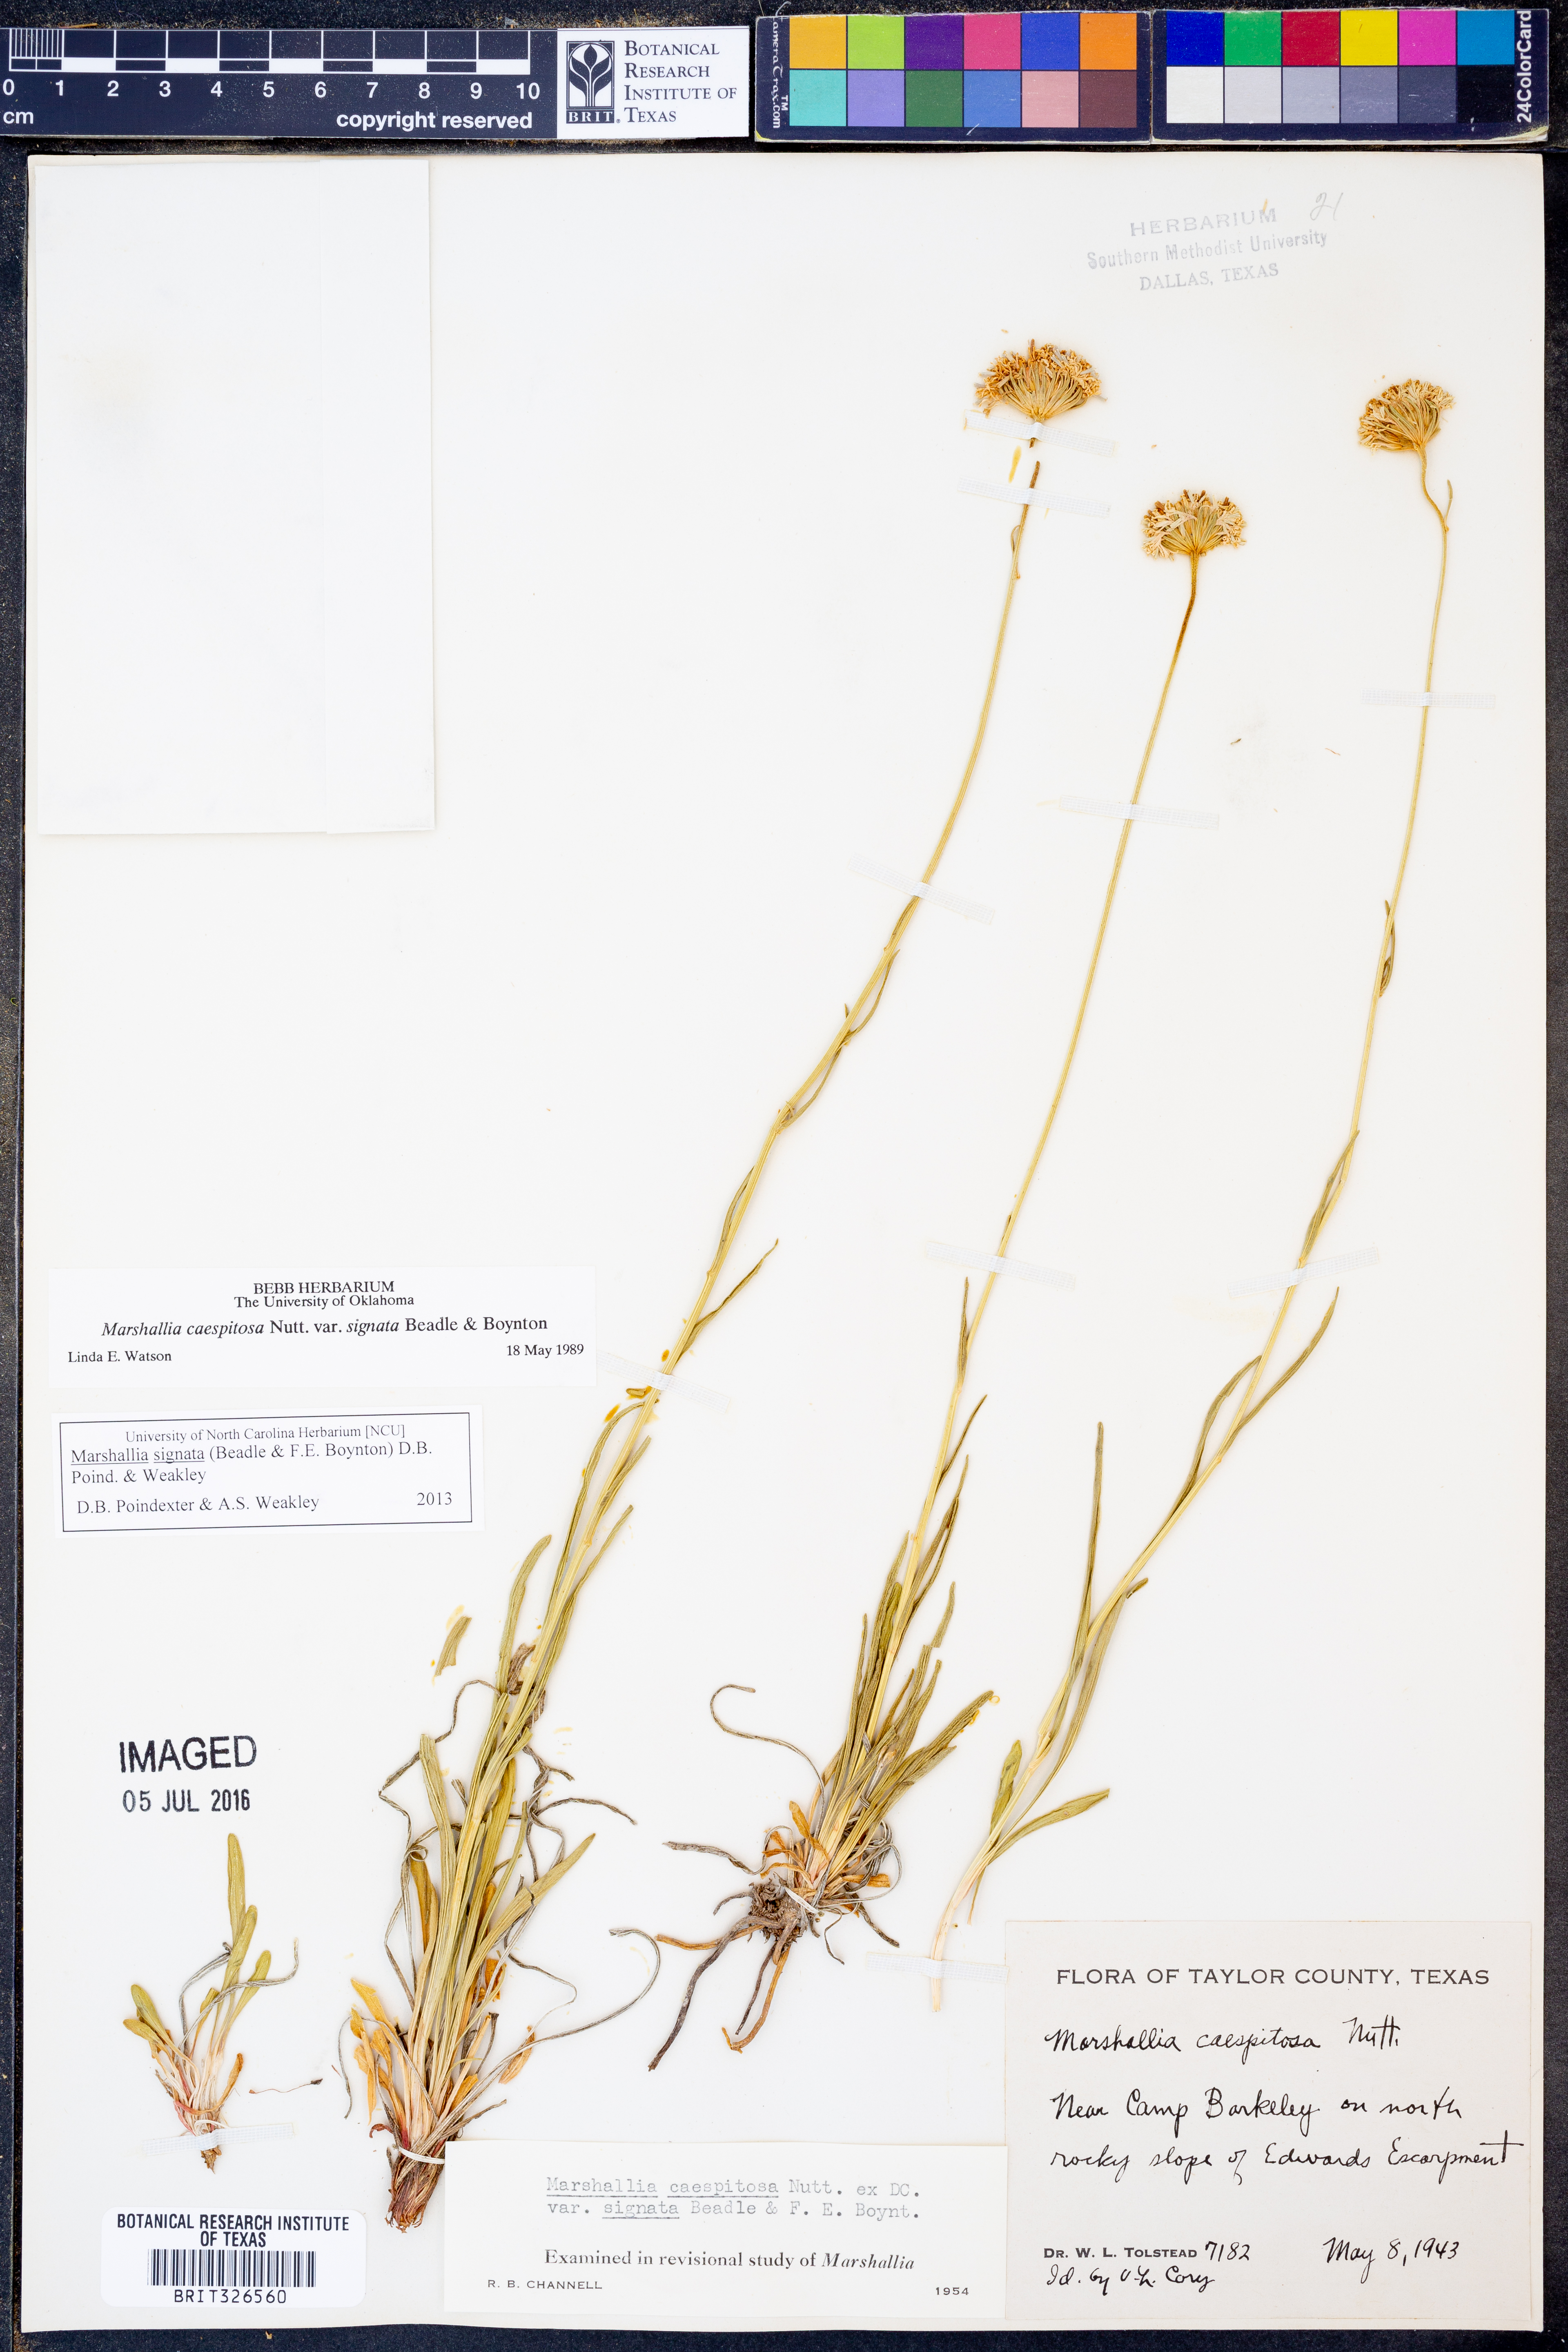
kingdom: Plantae
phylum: Tracheophyta
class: Magnoliopsida
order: Asterales
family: Asteraceae
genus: Marshallia
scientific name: Marshallia
